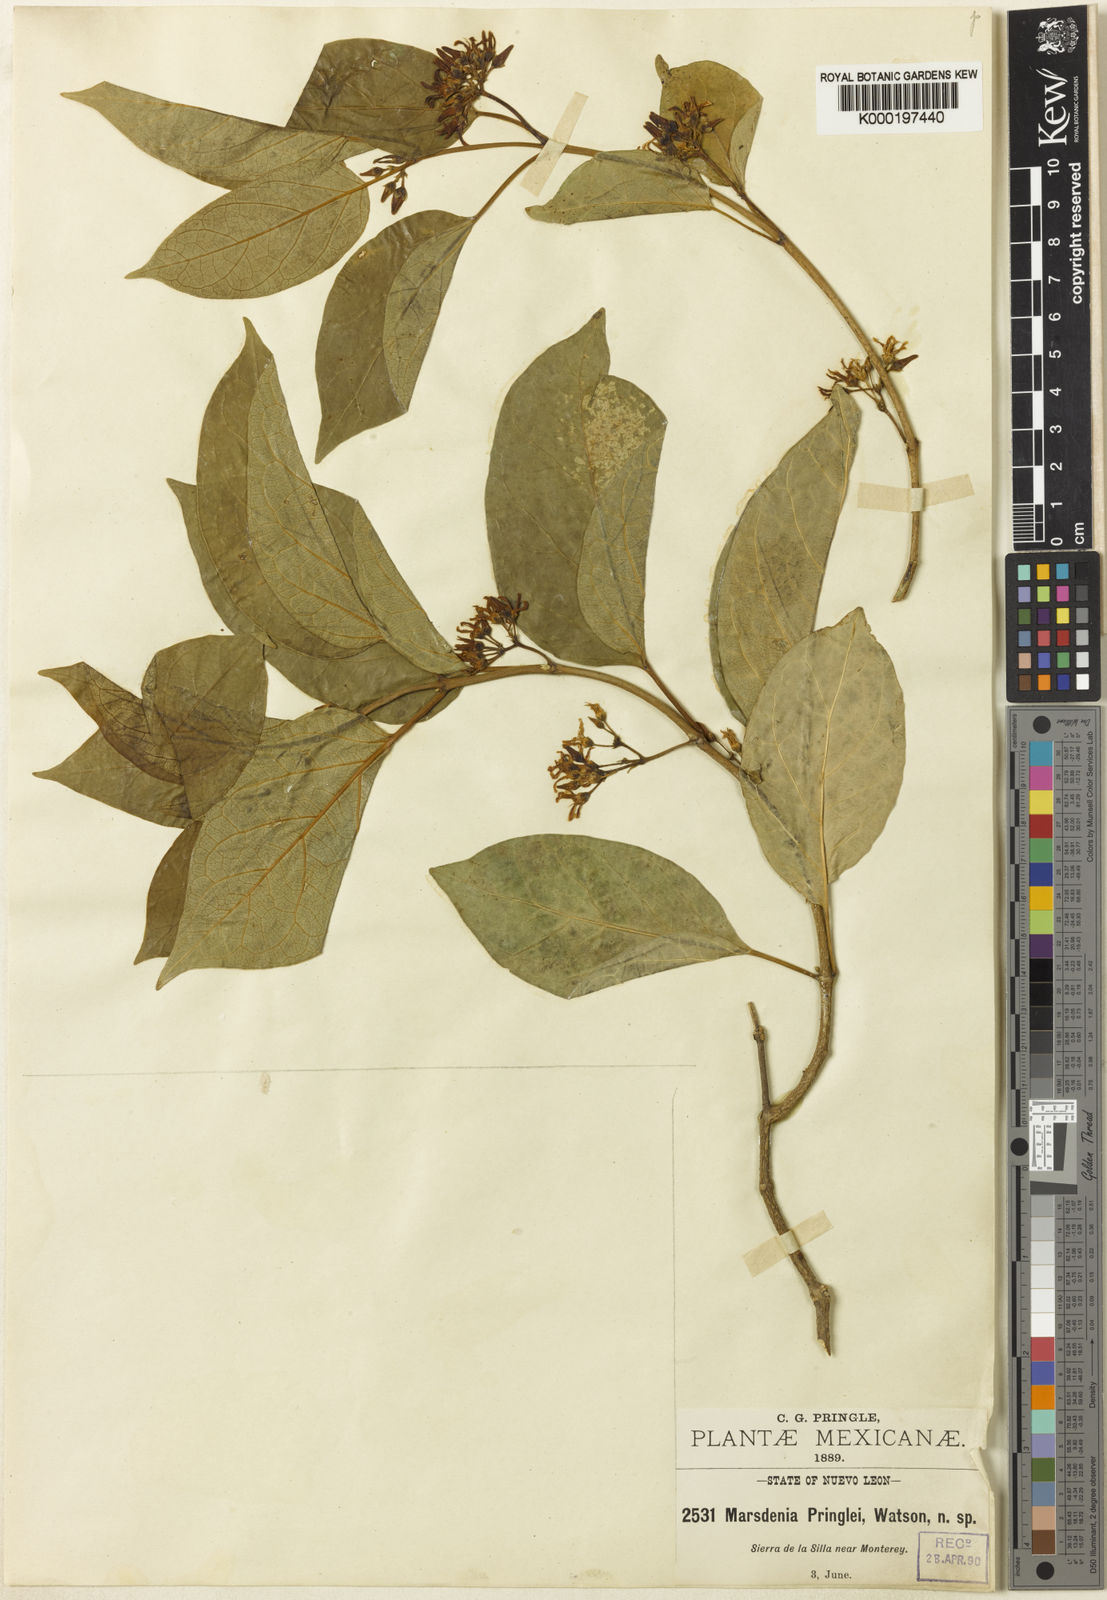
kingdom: Plantae
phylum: Tracheophyta
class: Magnoliopsida
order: Gentianales
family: Apocynaceae
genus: Ruehssia
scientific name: Ruehssia pringlei
